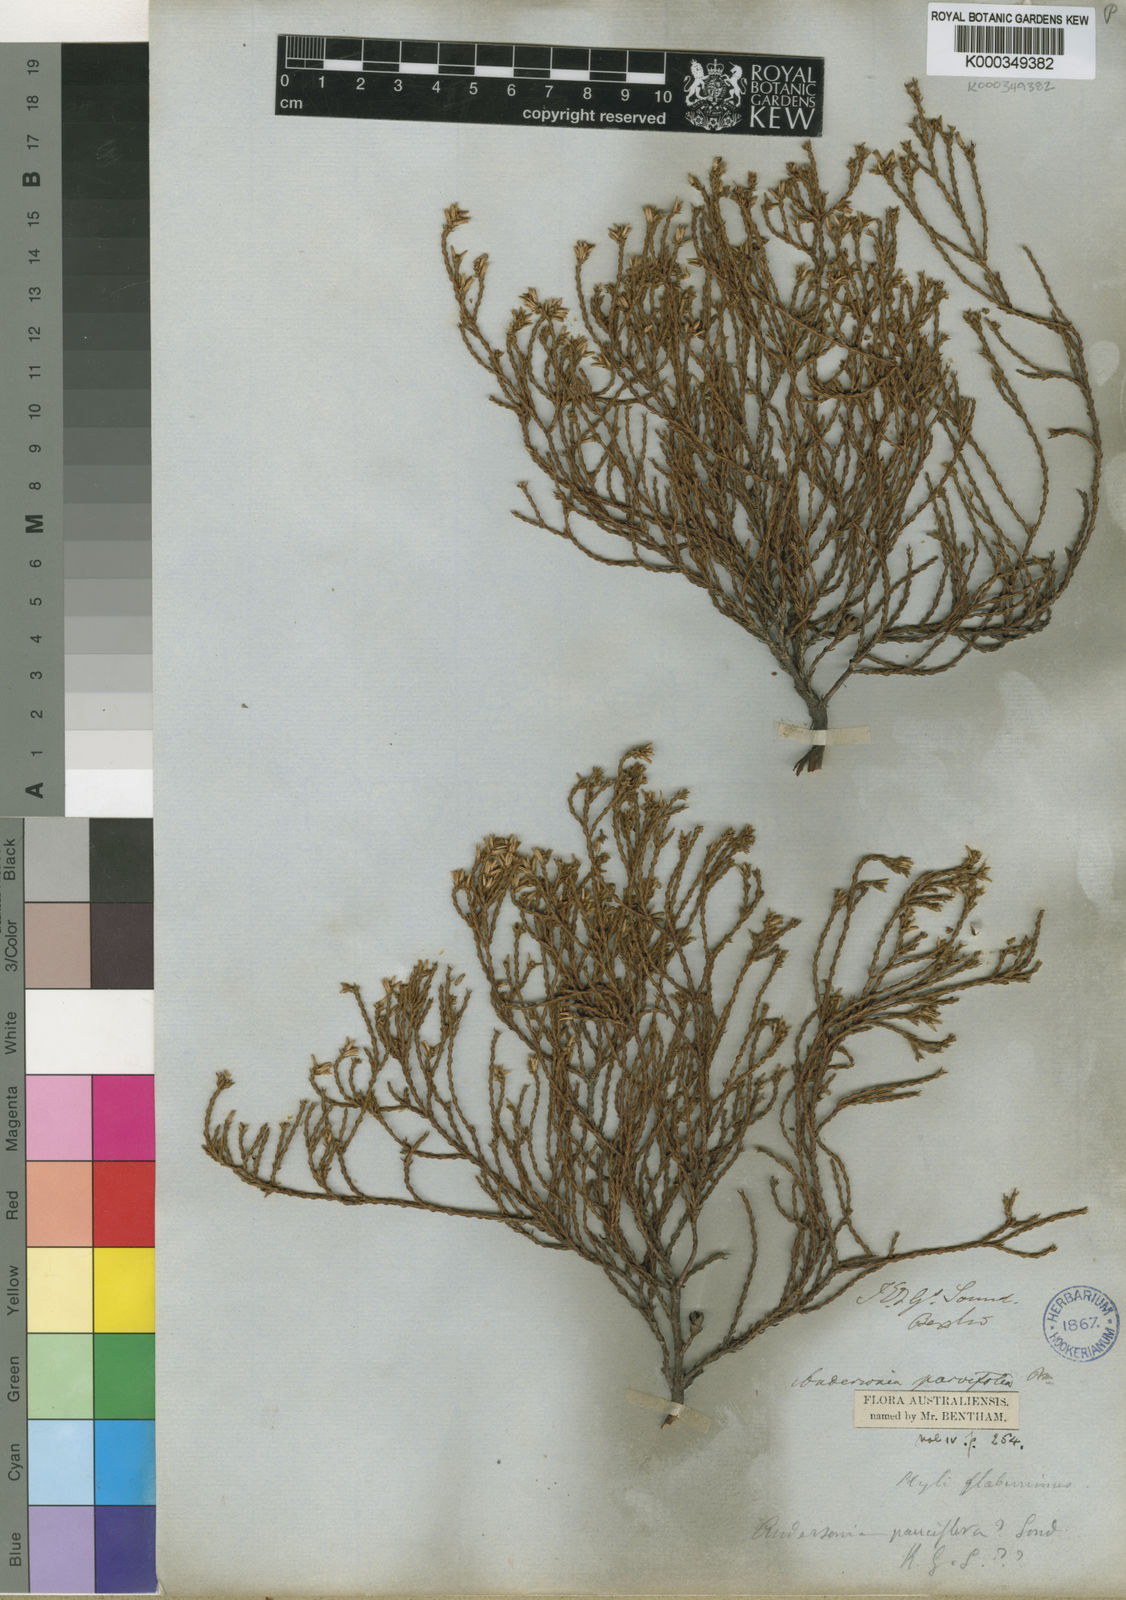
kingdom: Plantae
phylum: Tracheophyta
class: Magnoliopsida
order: Ericales
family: Ericaceae
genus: Andersonia
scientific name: Andersonia parvifolia
